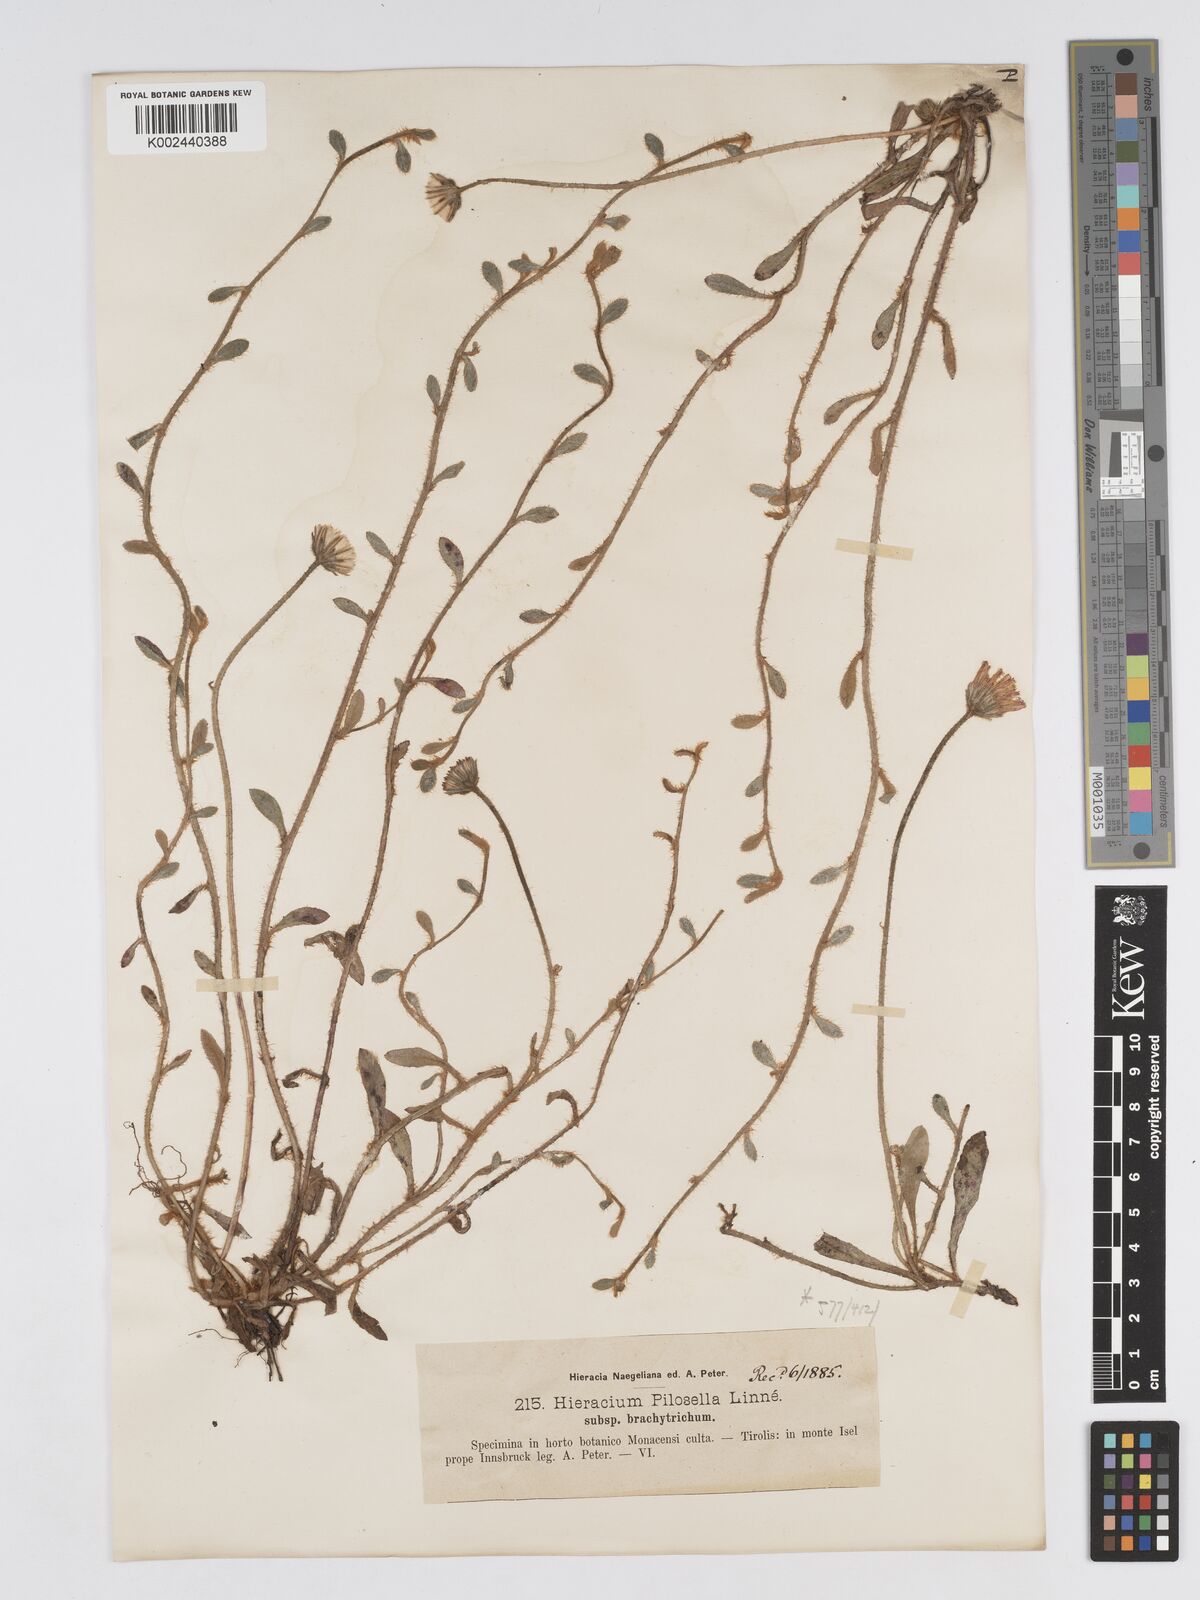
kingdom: Plantae
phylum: Tracheophyta
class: Magnoliopsida
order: Asterales
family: Asteraceae
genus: Pilosella
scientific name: Pilosella officinarum
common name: Mouse-ear hawkweed
